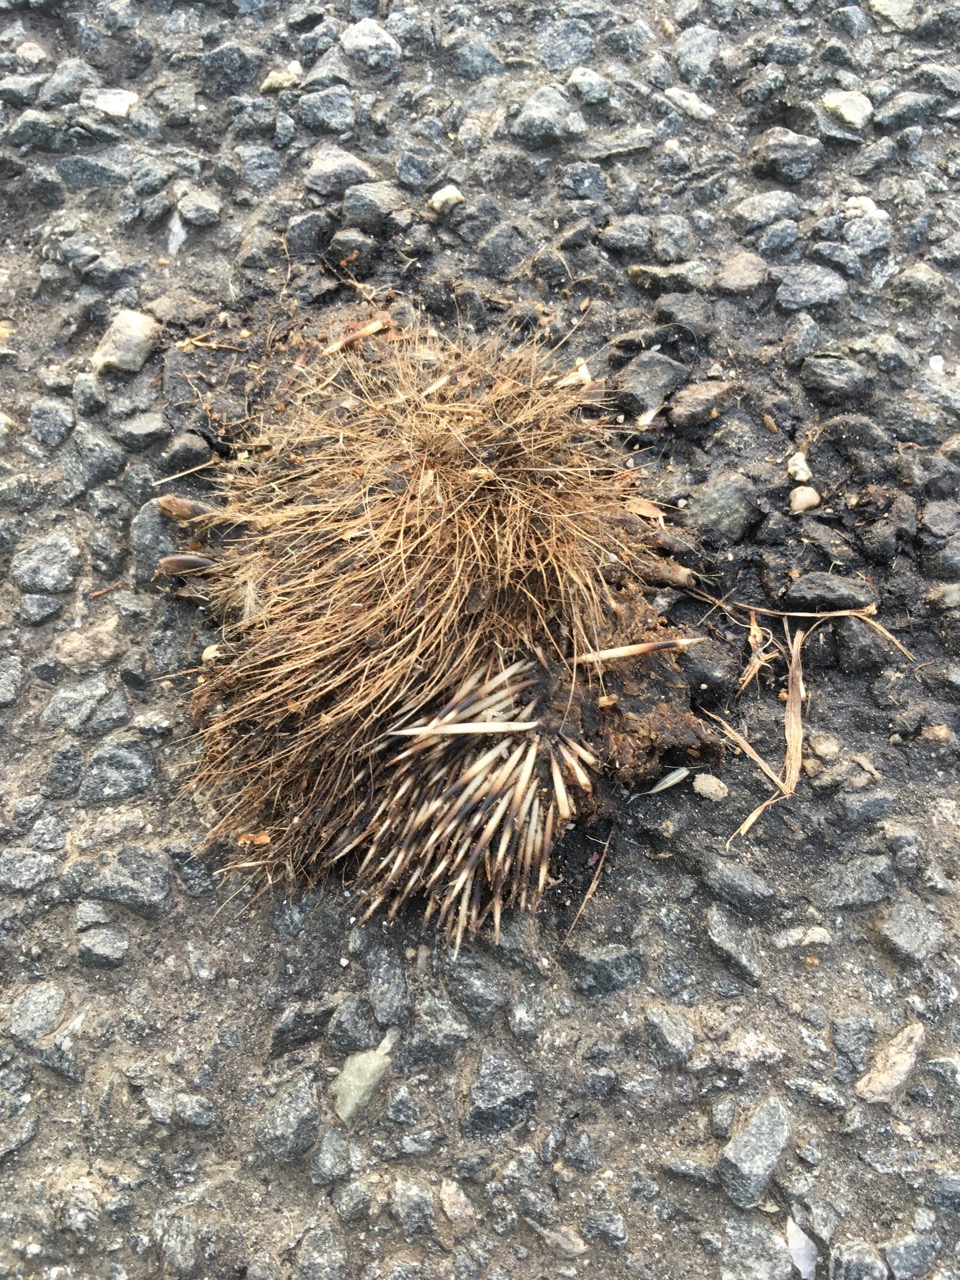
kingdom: Animalia
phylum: Chordata
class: Mammalia
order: Erinaceomorpha
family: Erinaceidae
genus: Erinaceus
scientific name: Erinaceus
